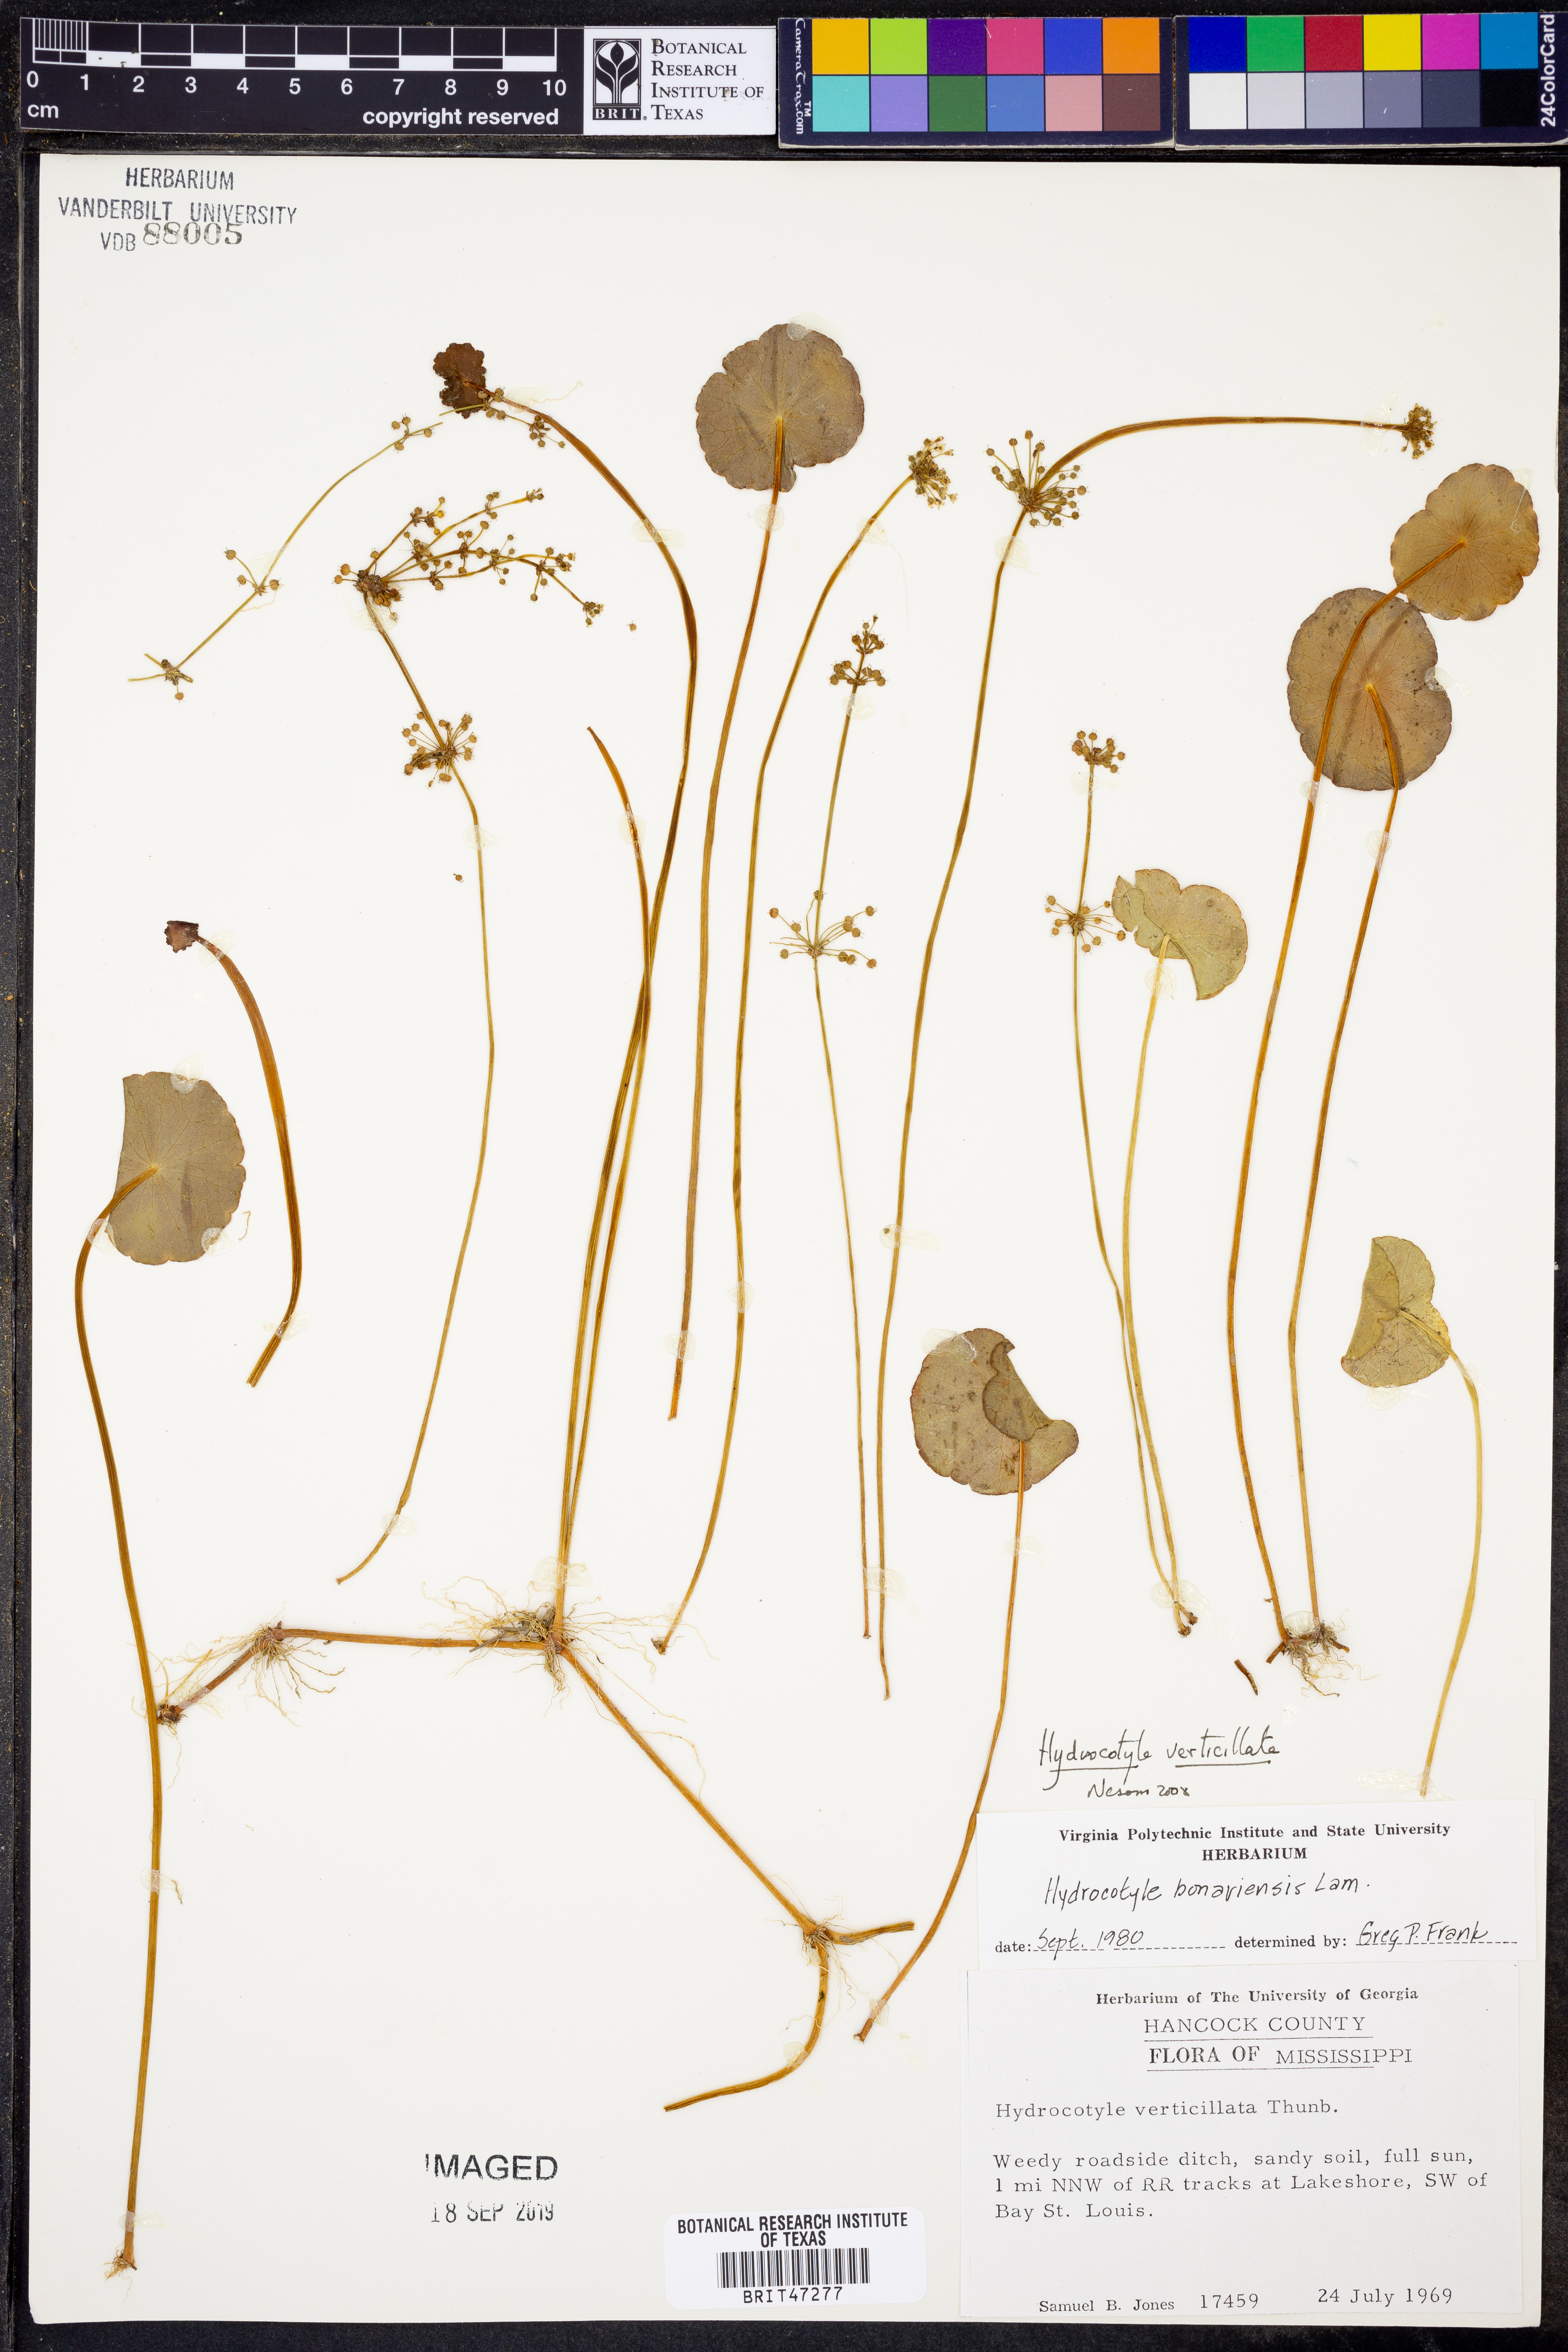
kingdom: Plantae
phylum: Tracheophyta
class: Magnoliopsida
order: Apiales
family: Araliaceae
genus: Hydrocotyle
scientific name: Hydrocotyle verticillata
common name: Whorled marshpennywort
